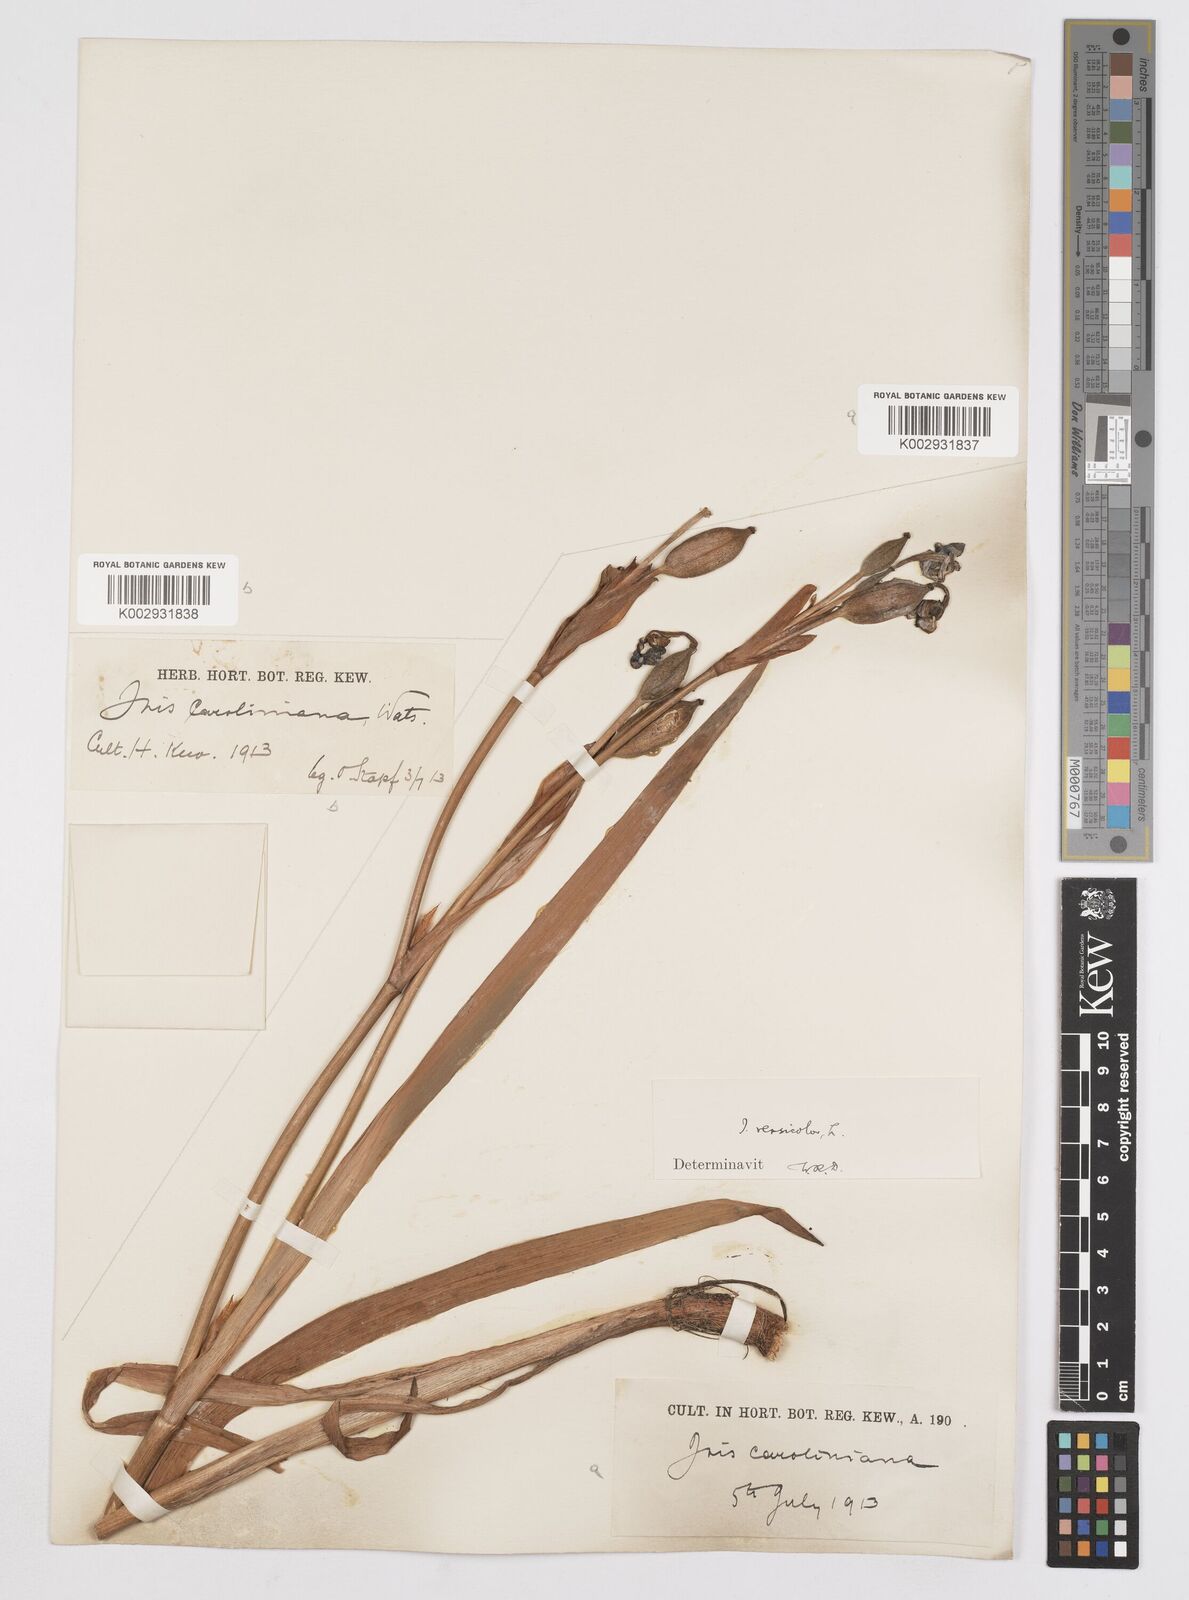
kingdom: Plantae
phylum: Tracheophyta
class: Liliopsida
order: Asparagales
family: Iridaceae
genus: Iris
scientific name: Iris virginica
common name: Southern blue flag
